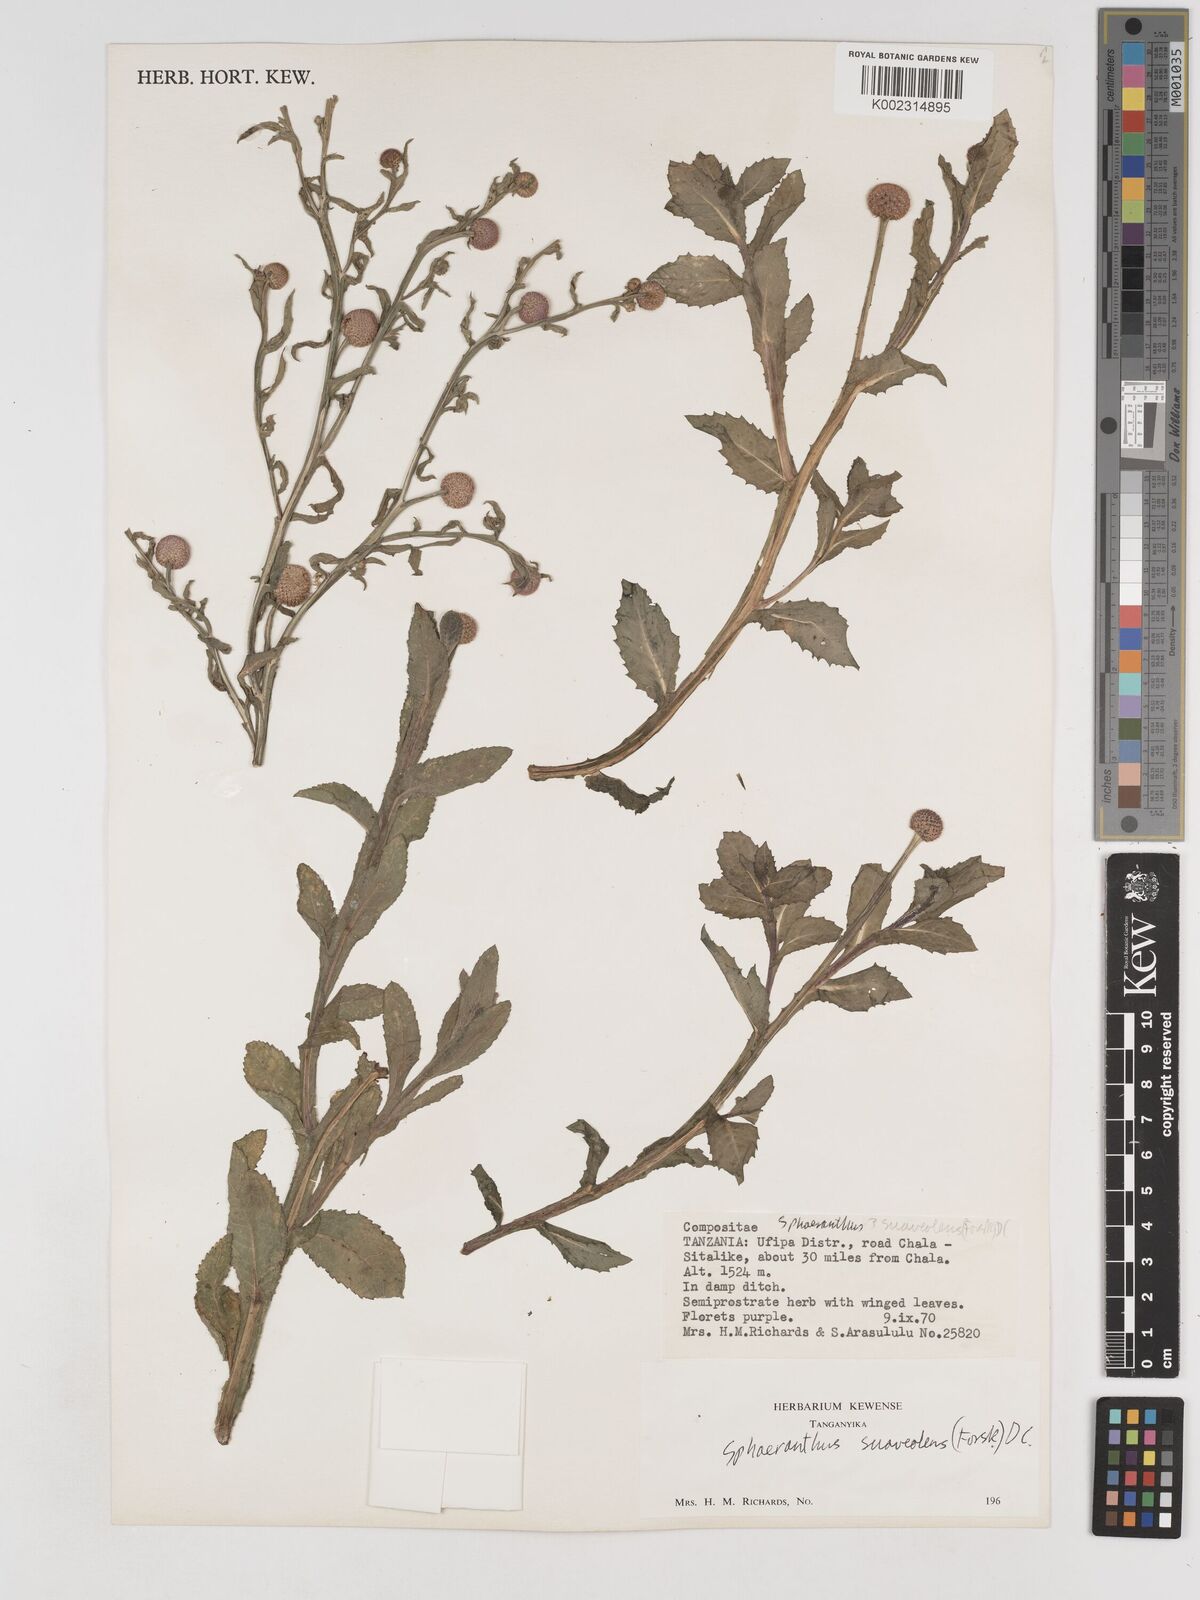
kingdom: Plantae
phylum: Tracheophyta
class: Magnoliopsida
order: Asterales
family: Asteraceae
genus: Sphaeranthus
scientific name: Sphaeranthus suaveolens
